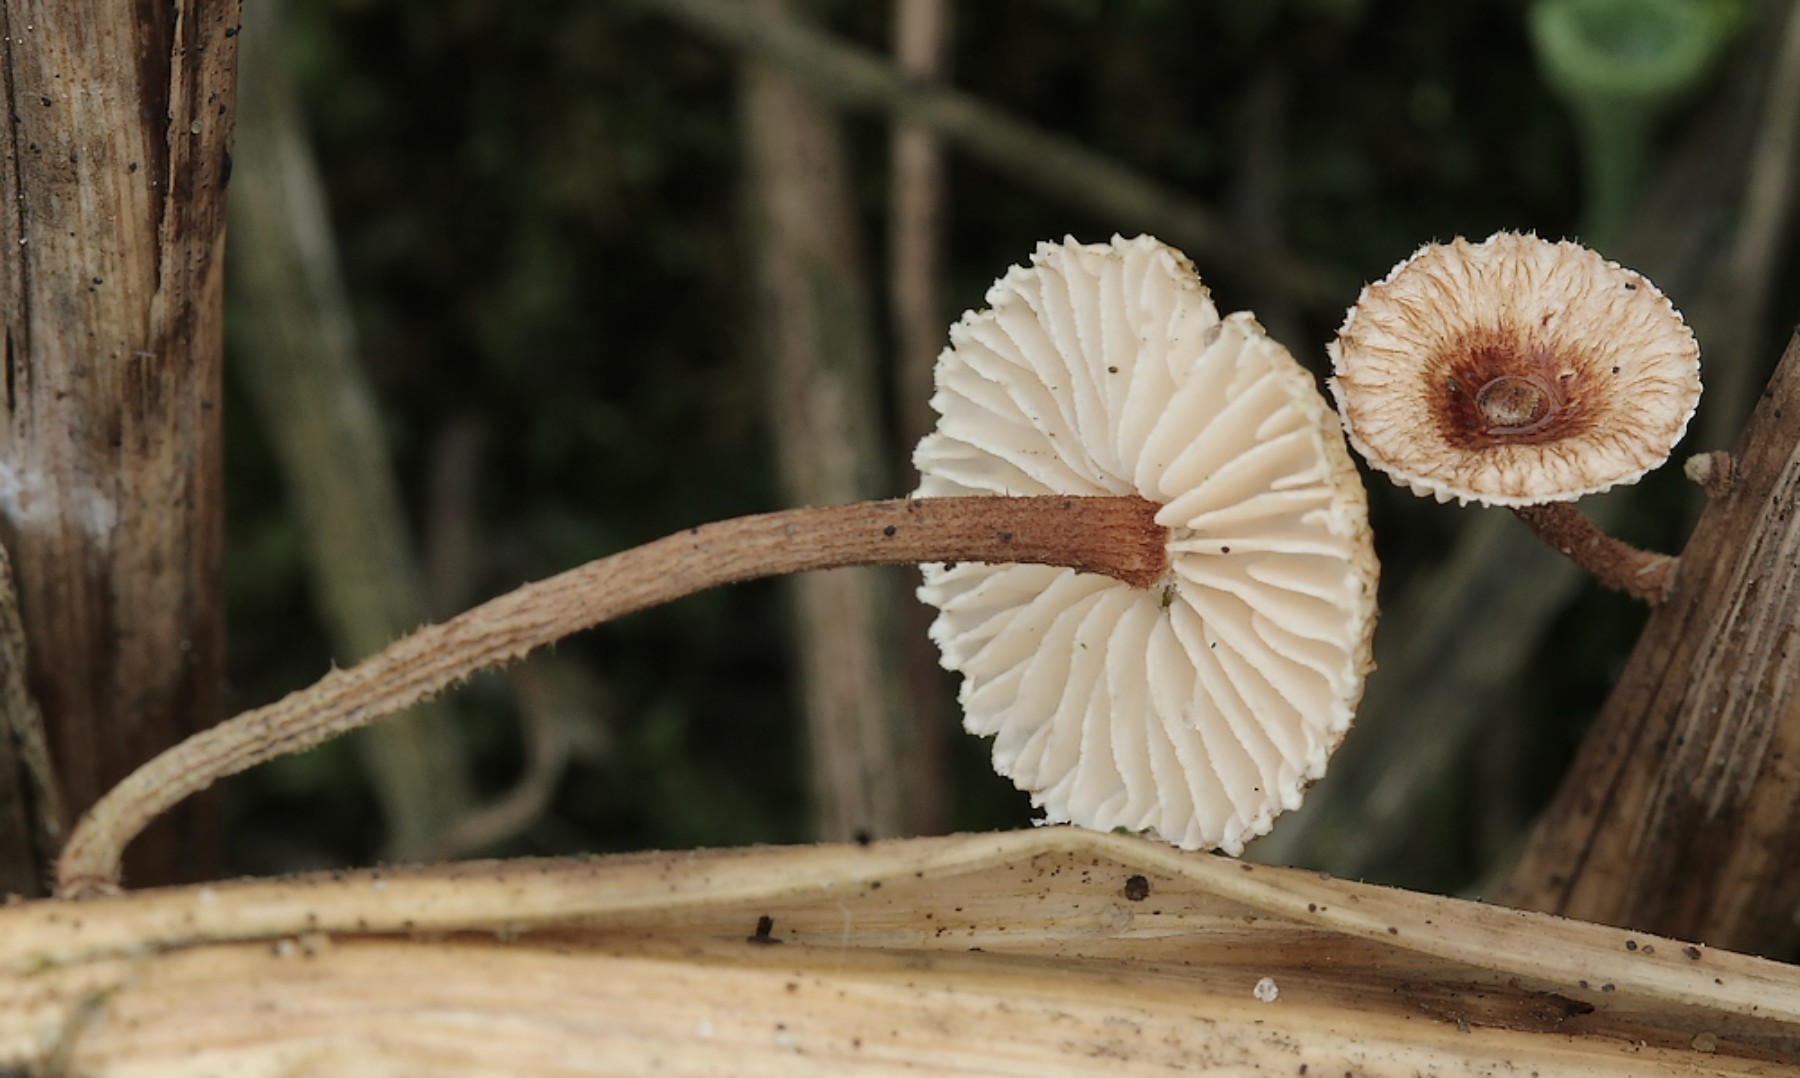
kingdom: Fungi
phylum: Basidiomycota
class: Agaricomycetes
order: Agaricales
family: Marasmiaceae
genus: Crinipellis
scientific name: Crinipellis scabella
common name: børstefod
